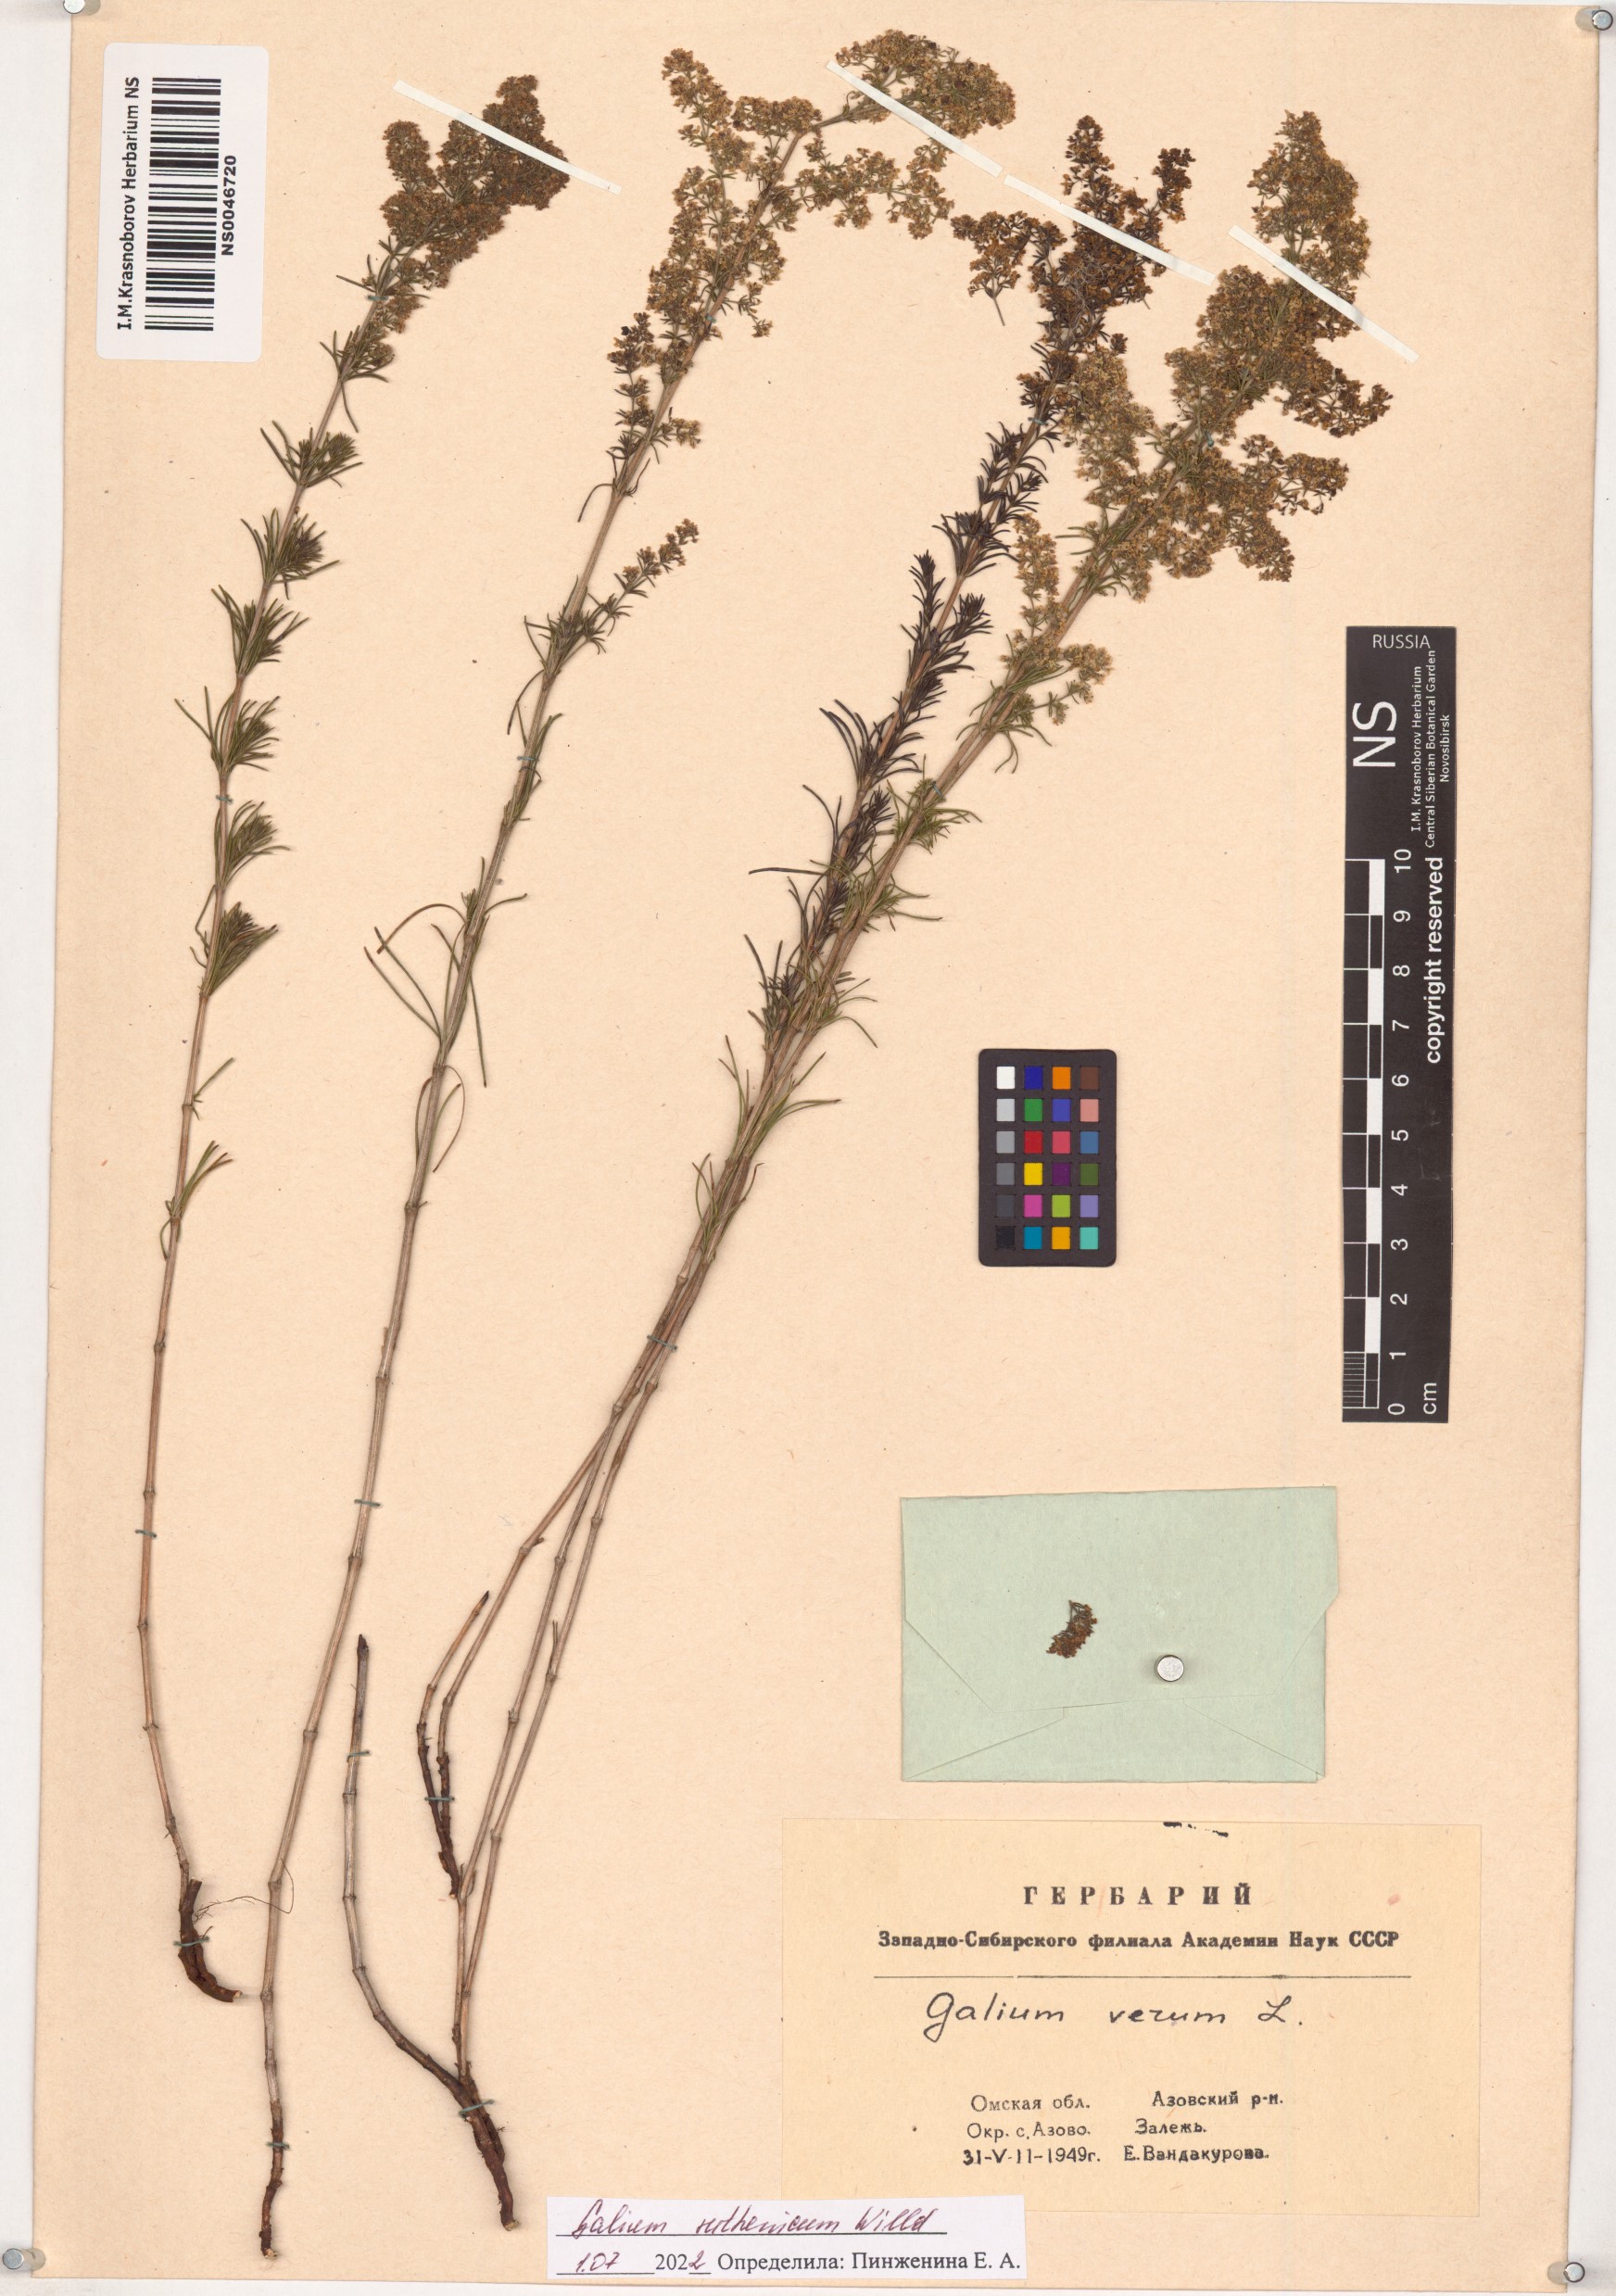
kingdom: Plantae
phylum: Tracheophyta
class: Magnoliopsida
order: Gentianales
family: Rubiaceae
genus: Galium
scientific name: Galium verum
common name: Lady's bedstraw
